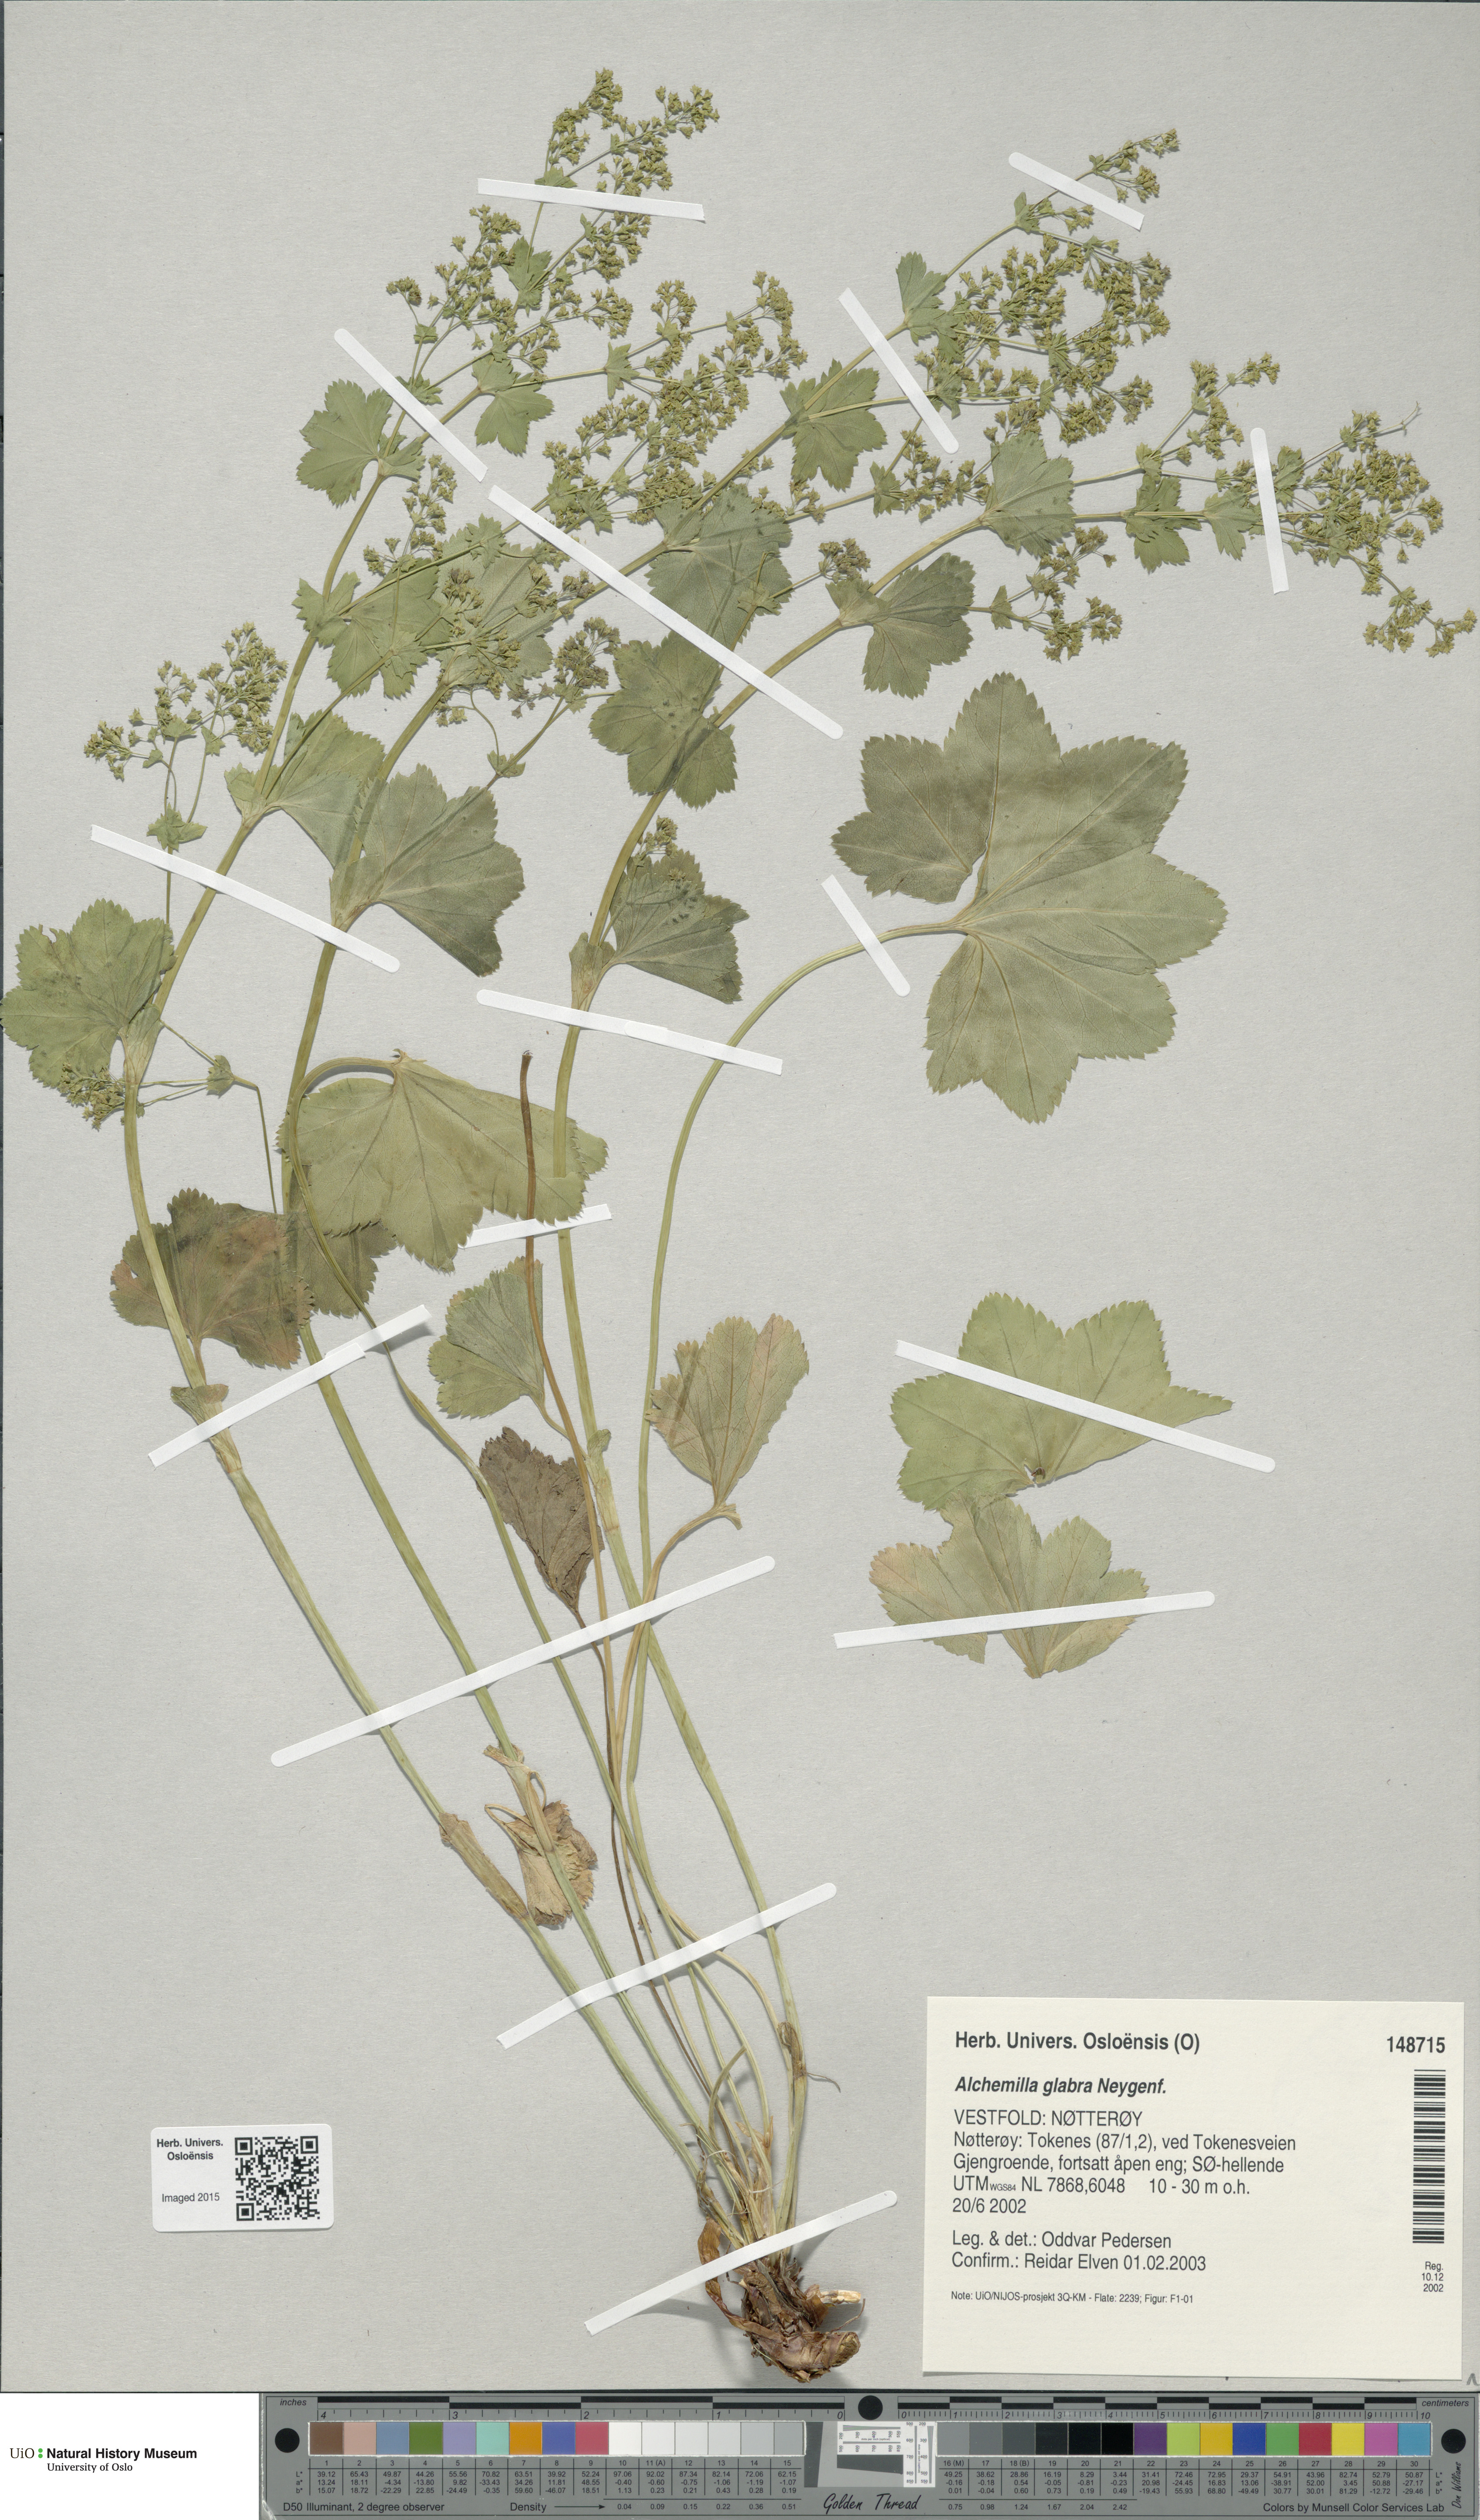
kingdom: Plantae
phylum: Tracheophyta
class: Magnoliopsida
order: Rosales
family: Rosaceae
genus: Alchemilla
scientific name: Alchemilla glabra
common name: Smooth lady's-mantle
